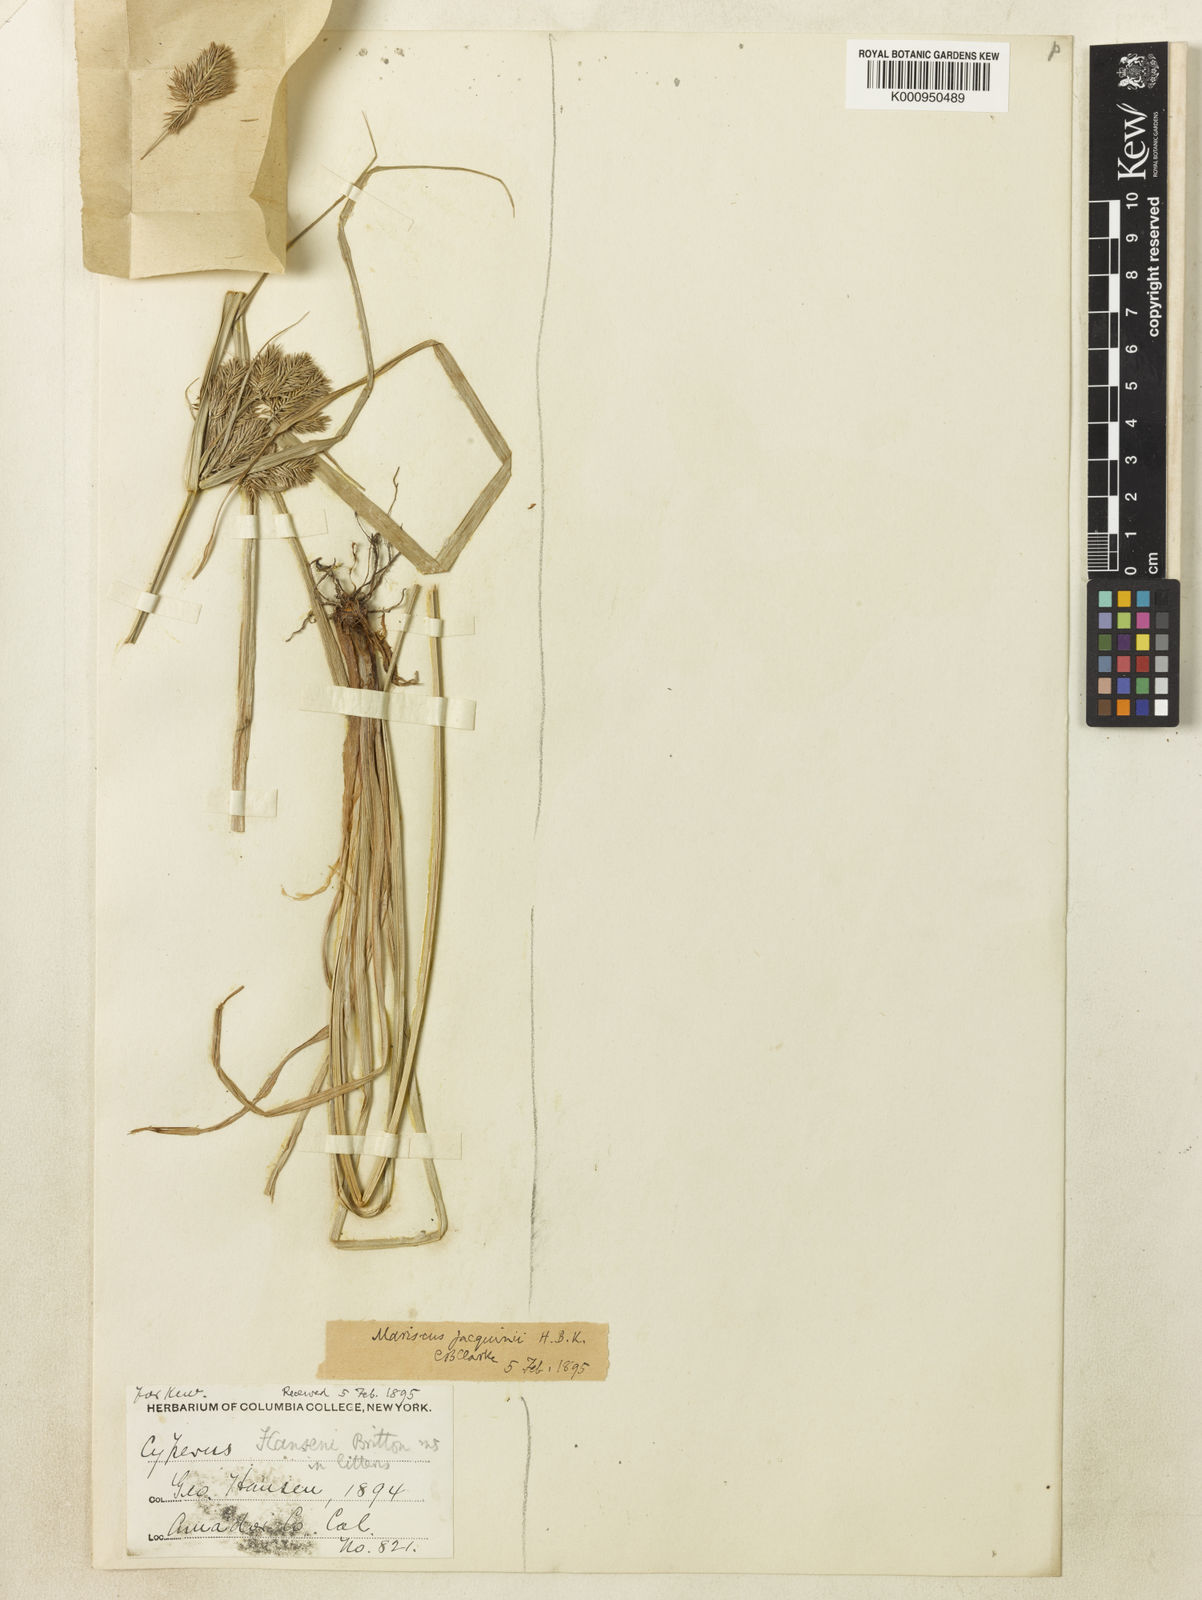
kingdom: Plantae
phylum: Tracheophyta
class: Liliopsida
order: Poales
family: Cyperaceae
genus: Cyperus
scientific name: Cyperus strigosus
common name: False nutsedge
